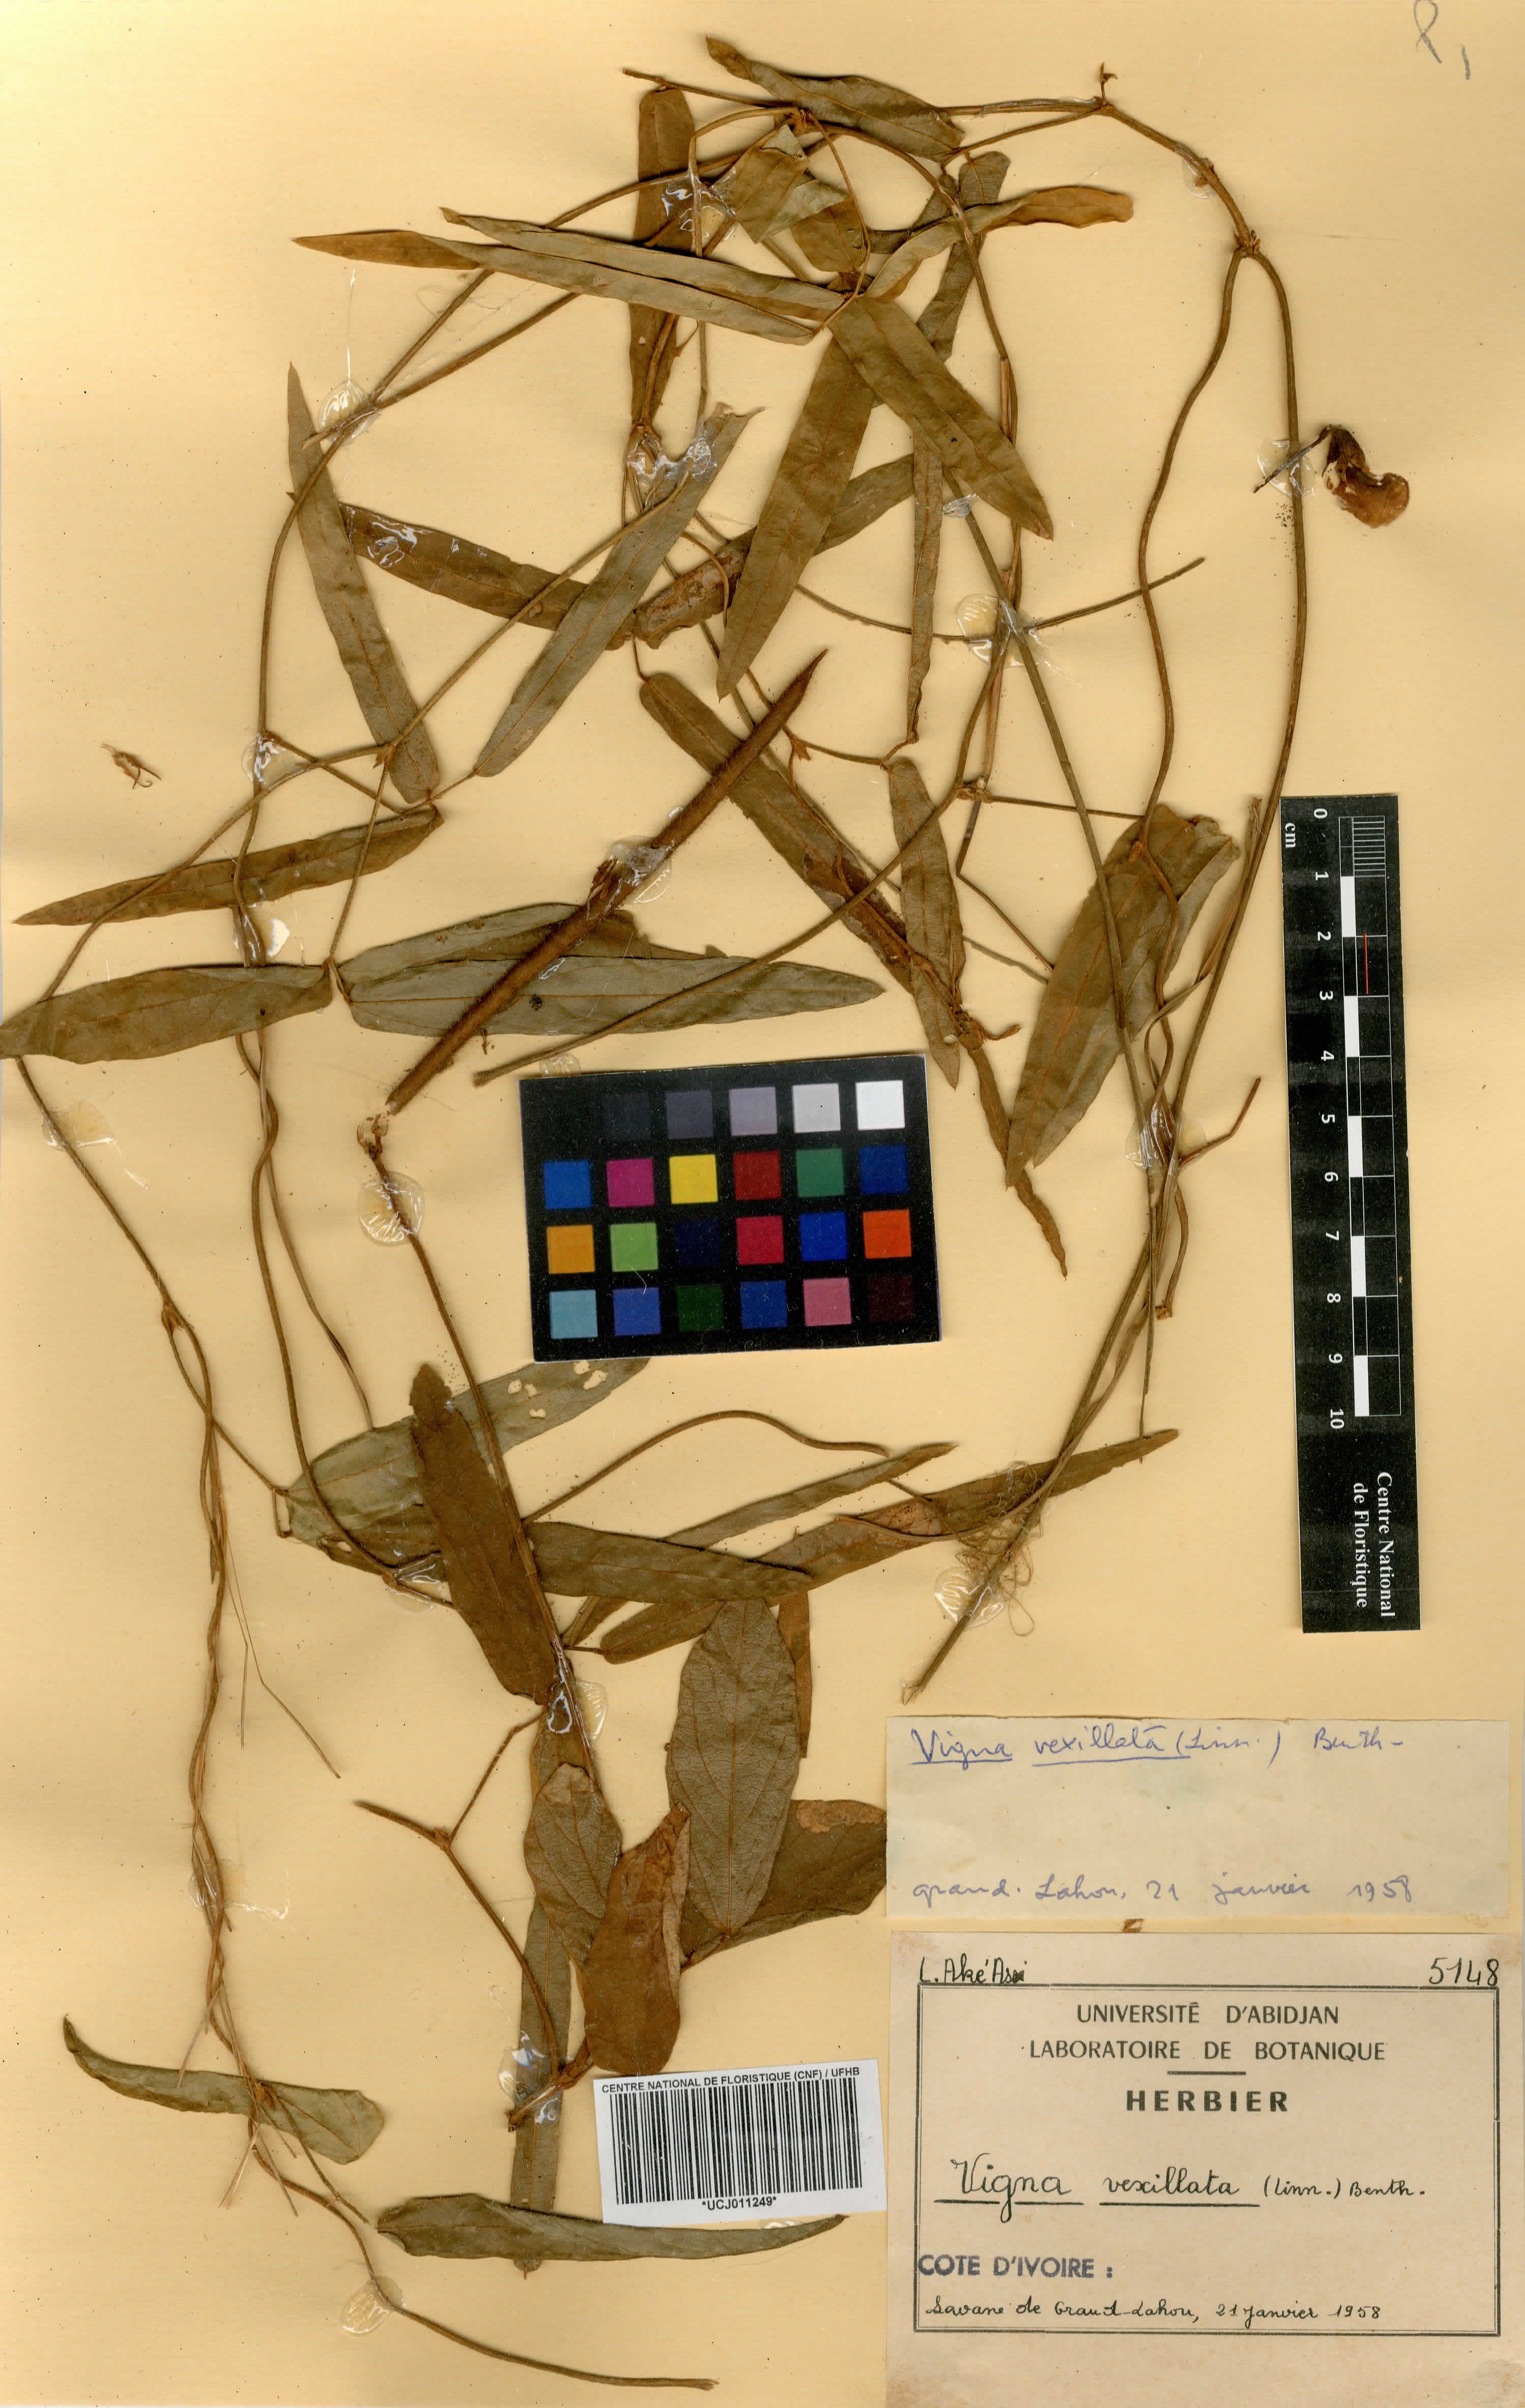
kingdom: Plantae
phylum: Tracheophyta
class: Magnoliopsida
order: Fabales
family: Fabaceae
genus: Vigna
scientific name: Vigna venulosa
